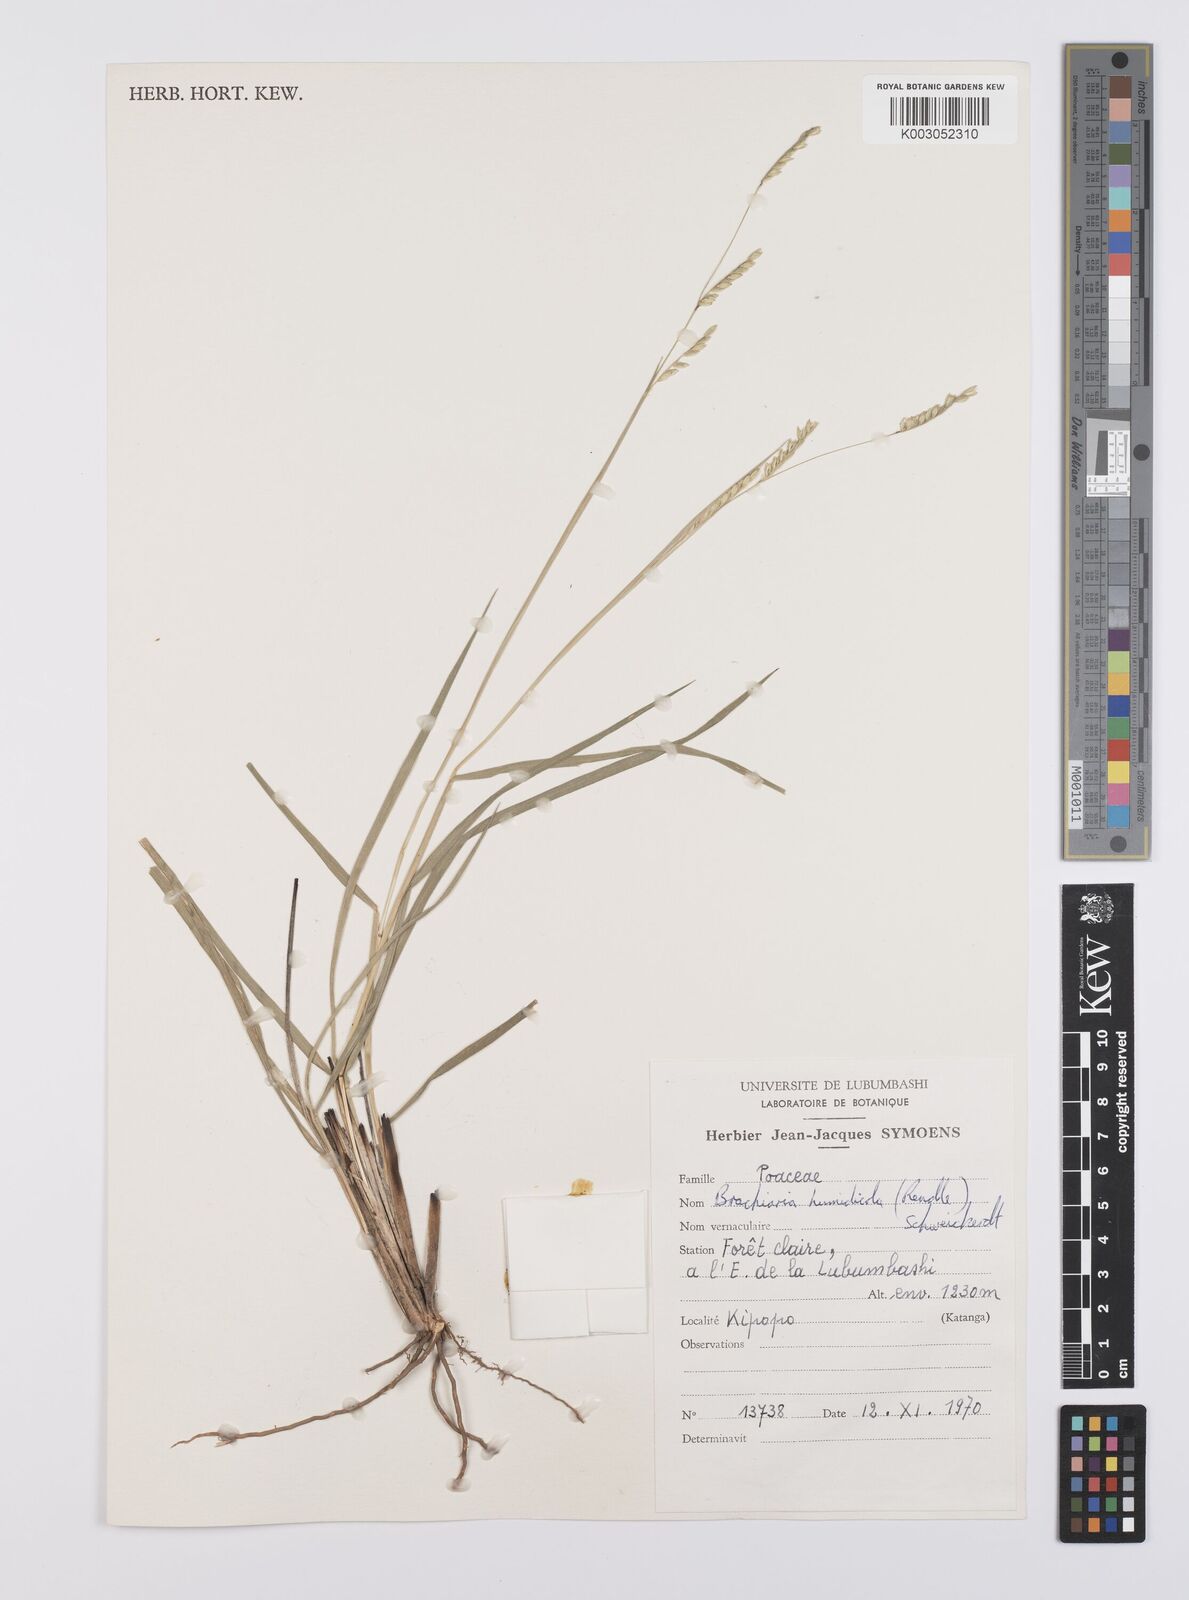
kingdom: Plantae
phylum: Tracheophyta
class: Liliopsida
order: Poales
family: Poaceae
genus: Urochloa
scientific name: Urochloa dictyoneura
